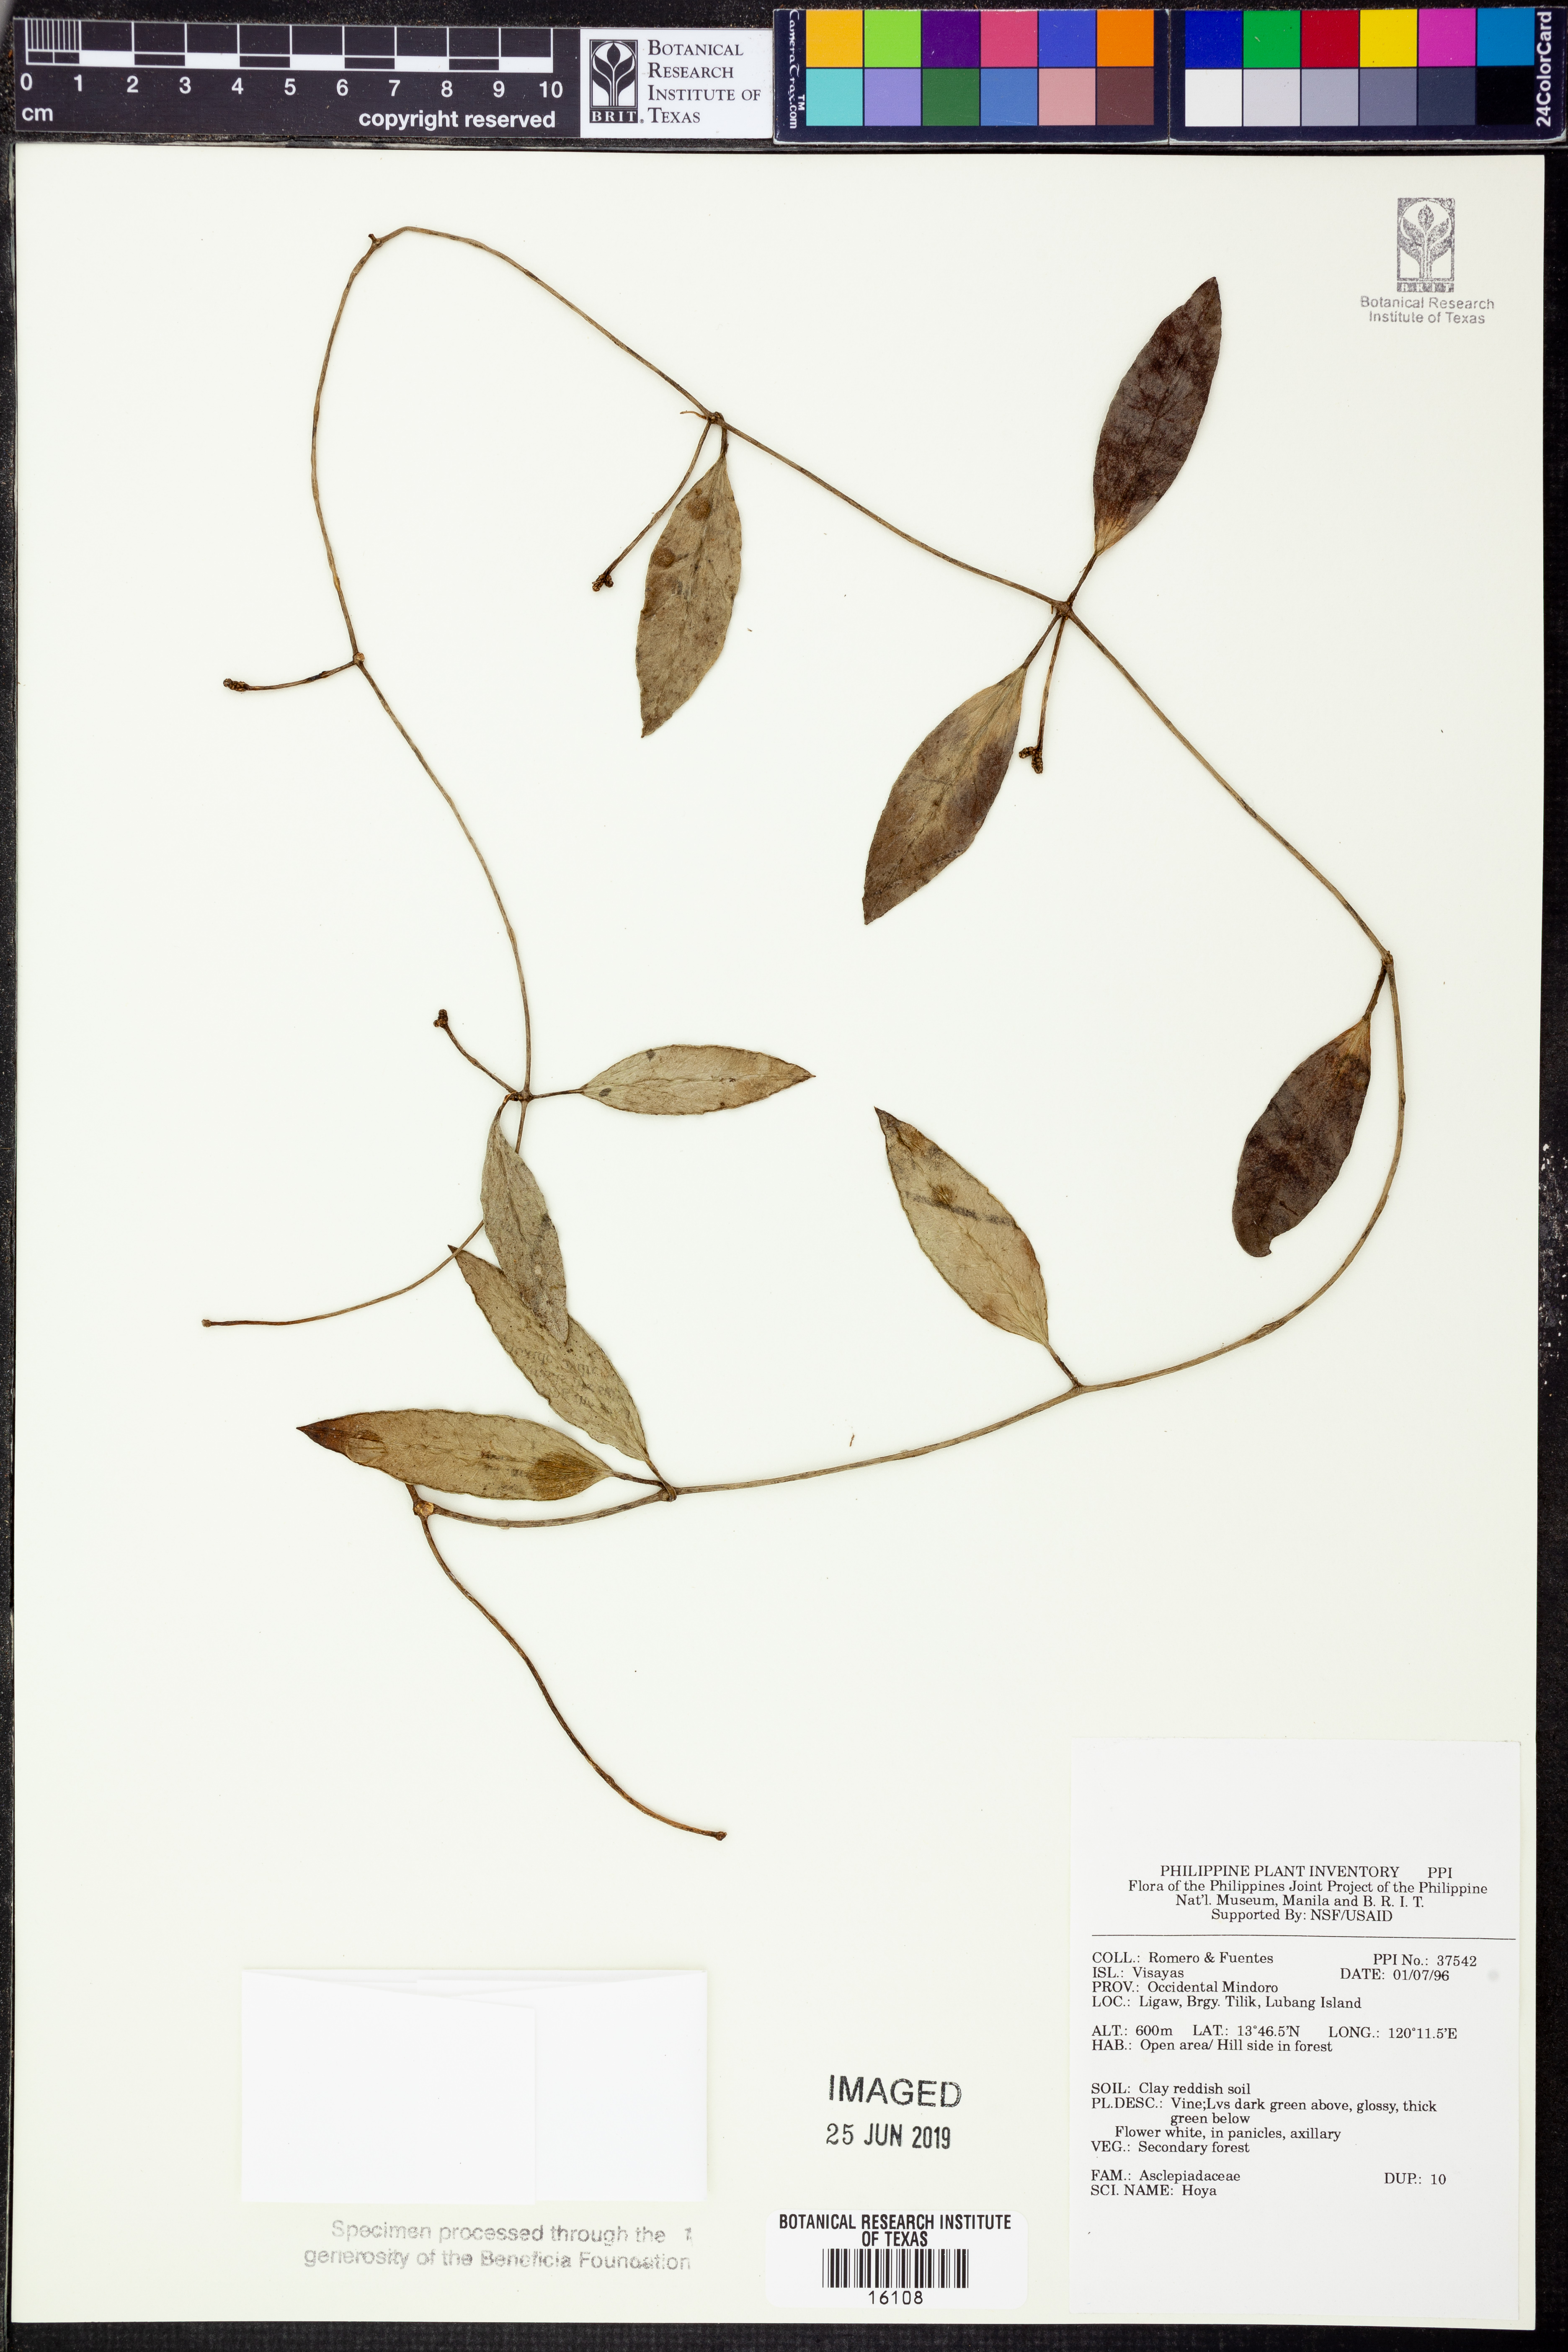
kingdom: Plantae
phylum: Tracheophyta
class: Magnoliopsida
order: Gentianales
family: Apocynaceae
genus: Hoya
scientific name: Hoya
